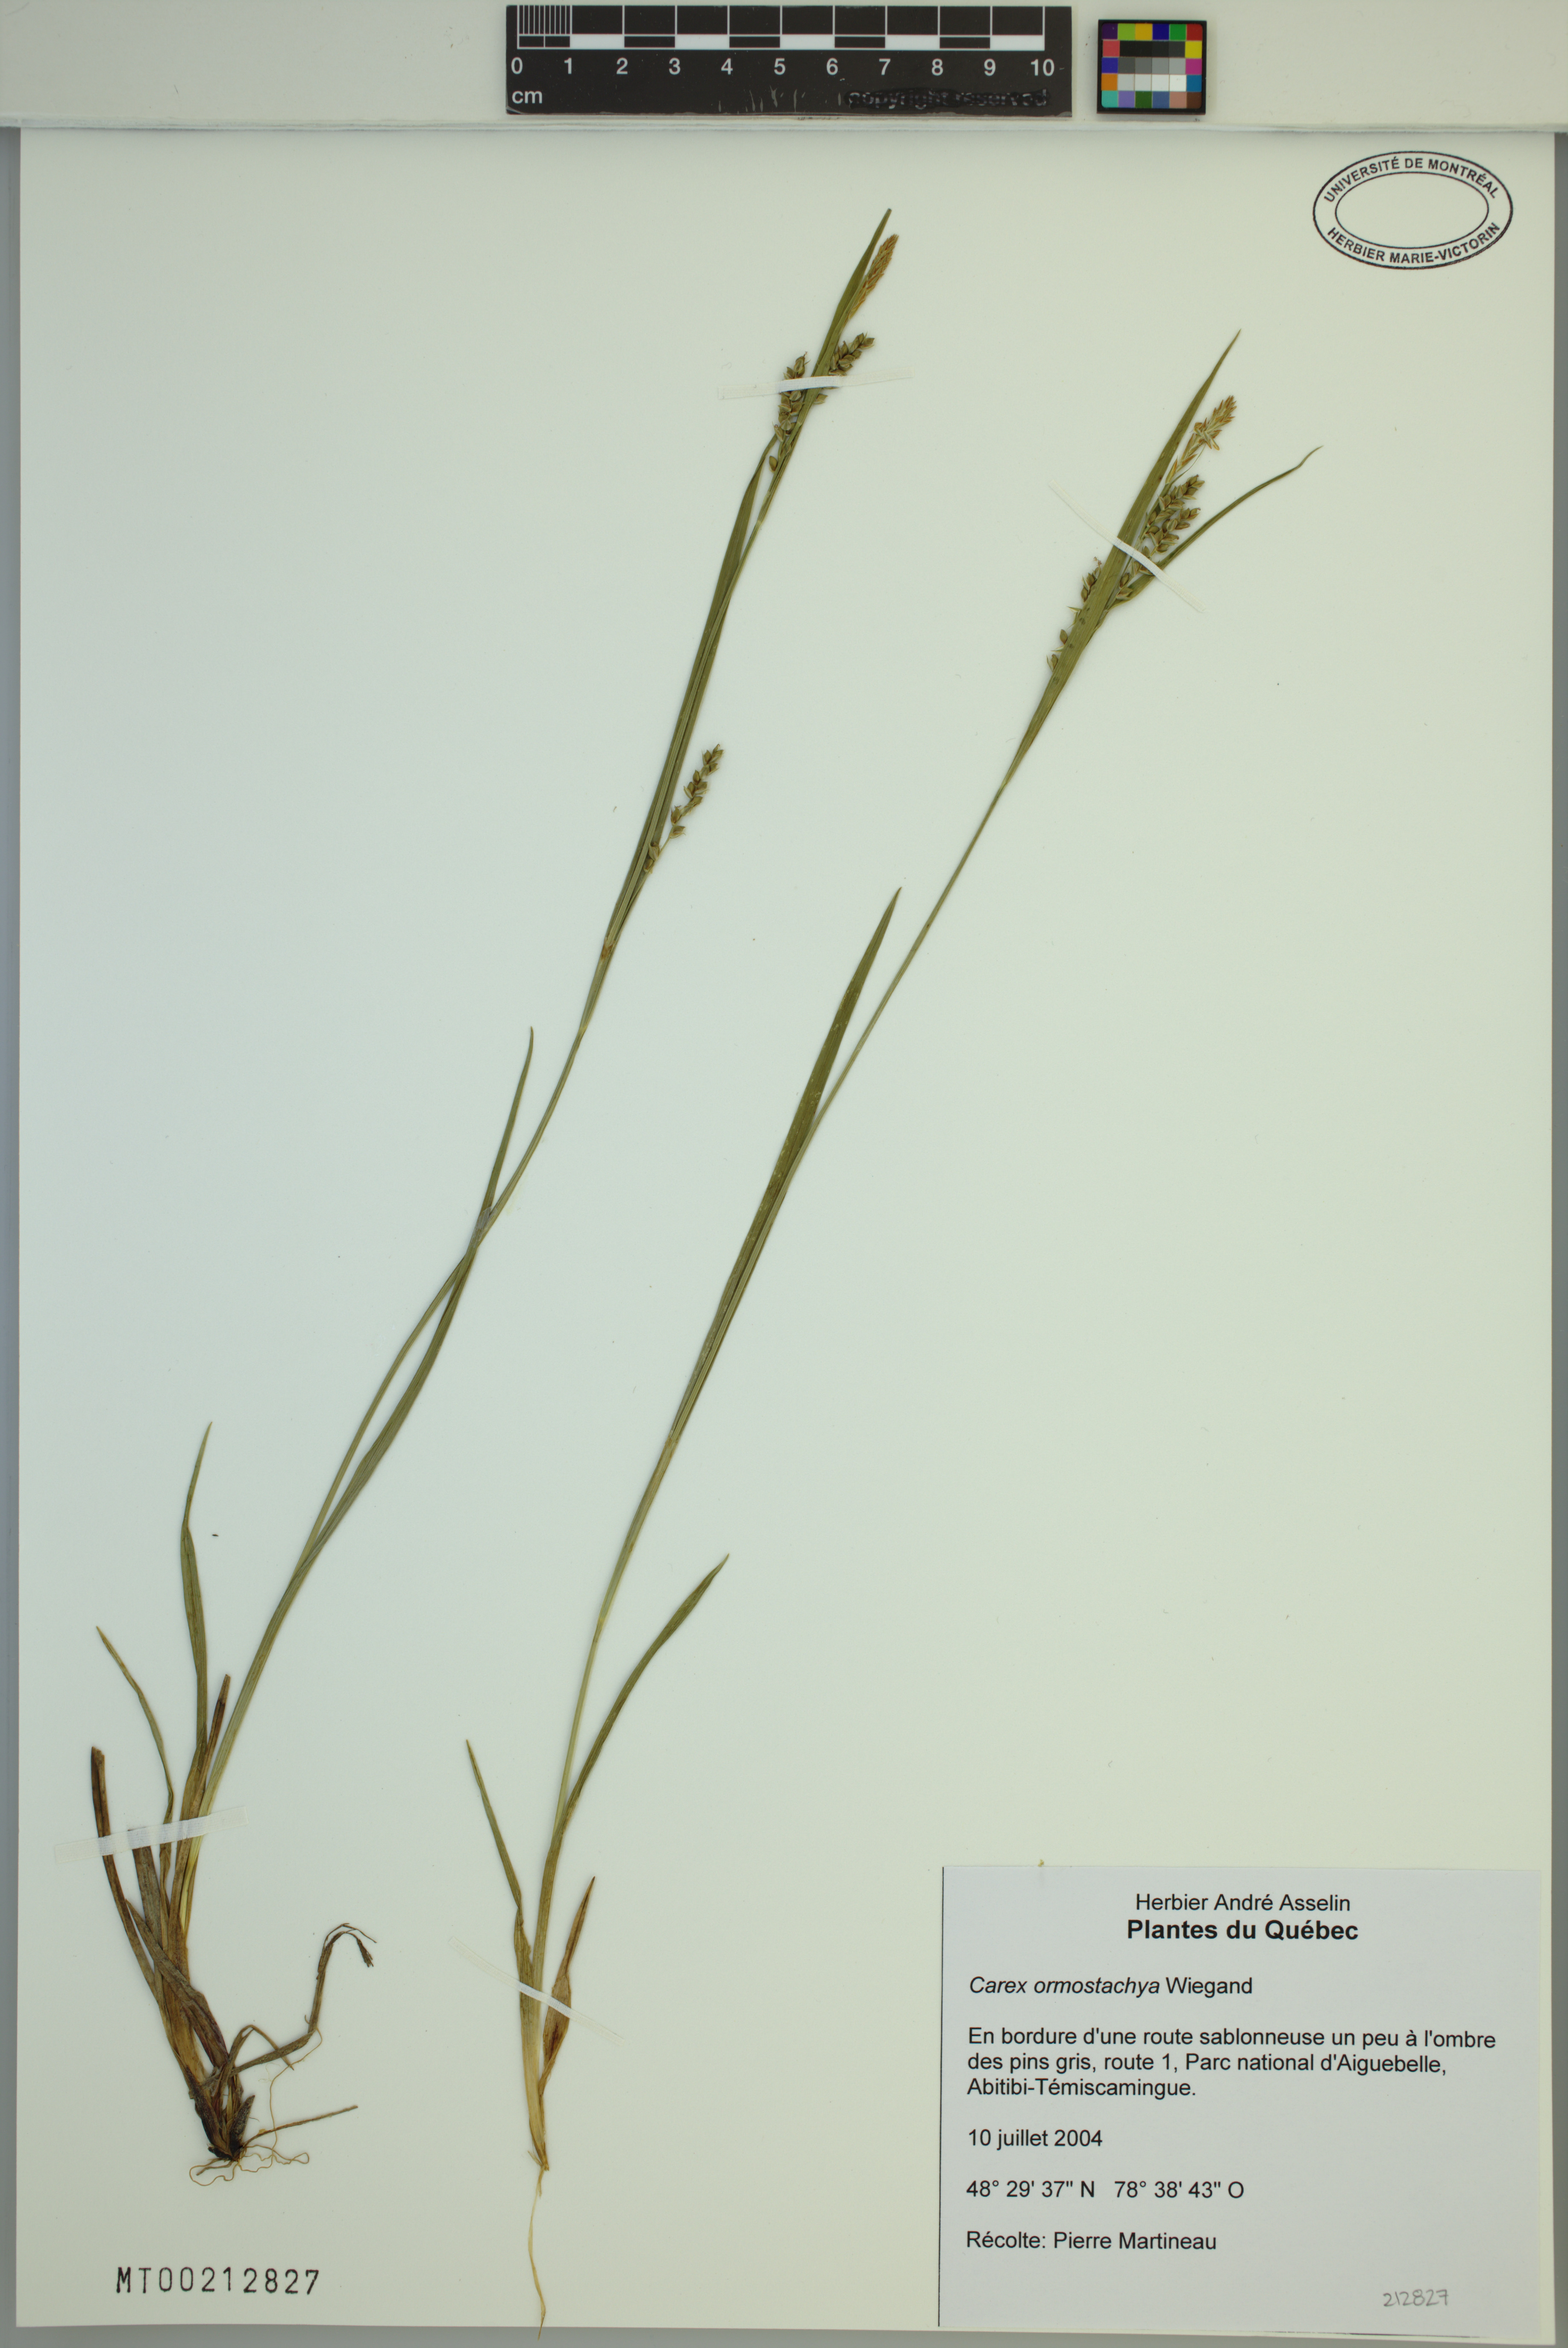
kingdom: Plantae
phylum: Tracheophyta
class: Liliopsida
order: Poales
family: Cyperaceae
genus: Carex
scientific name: Carex ormostachya
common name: Necklace spike sedge
